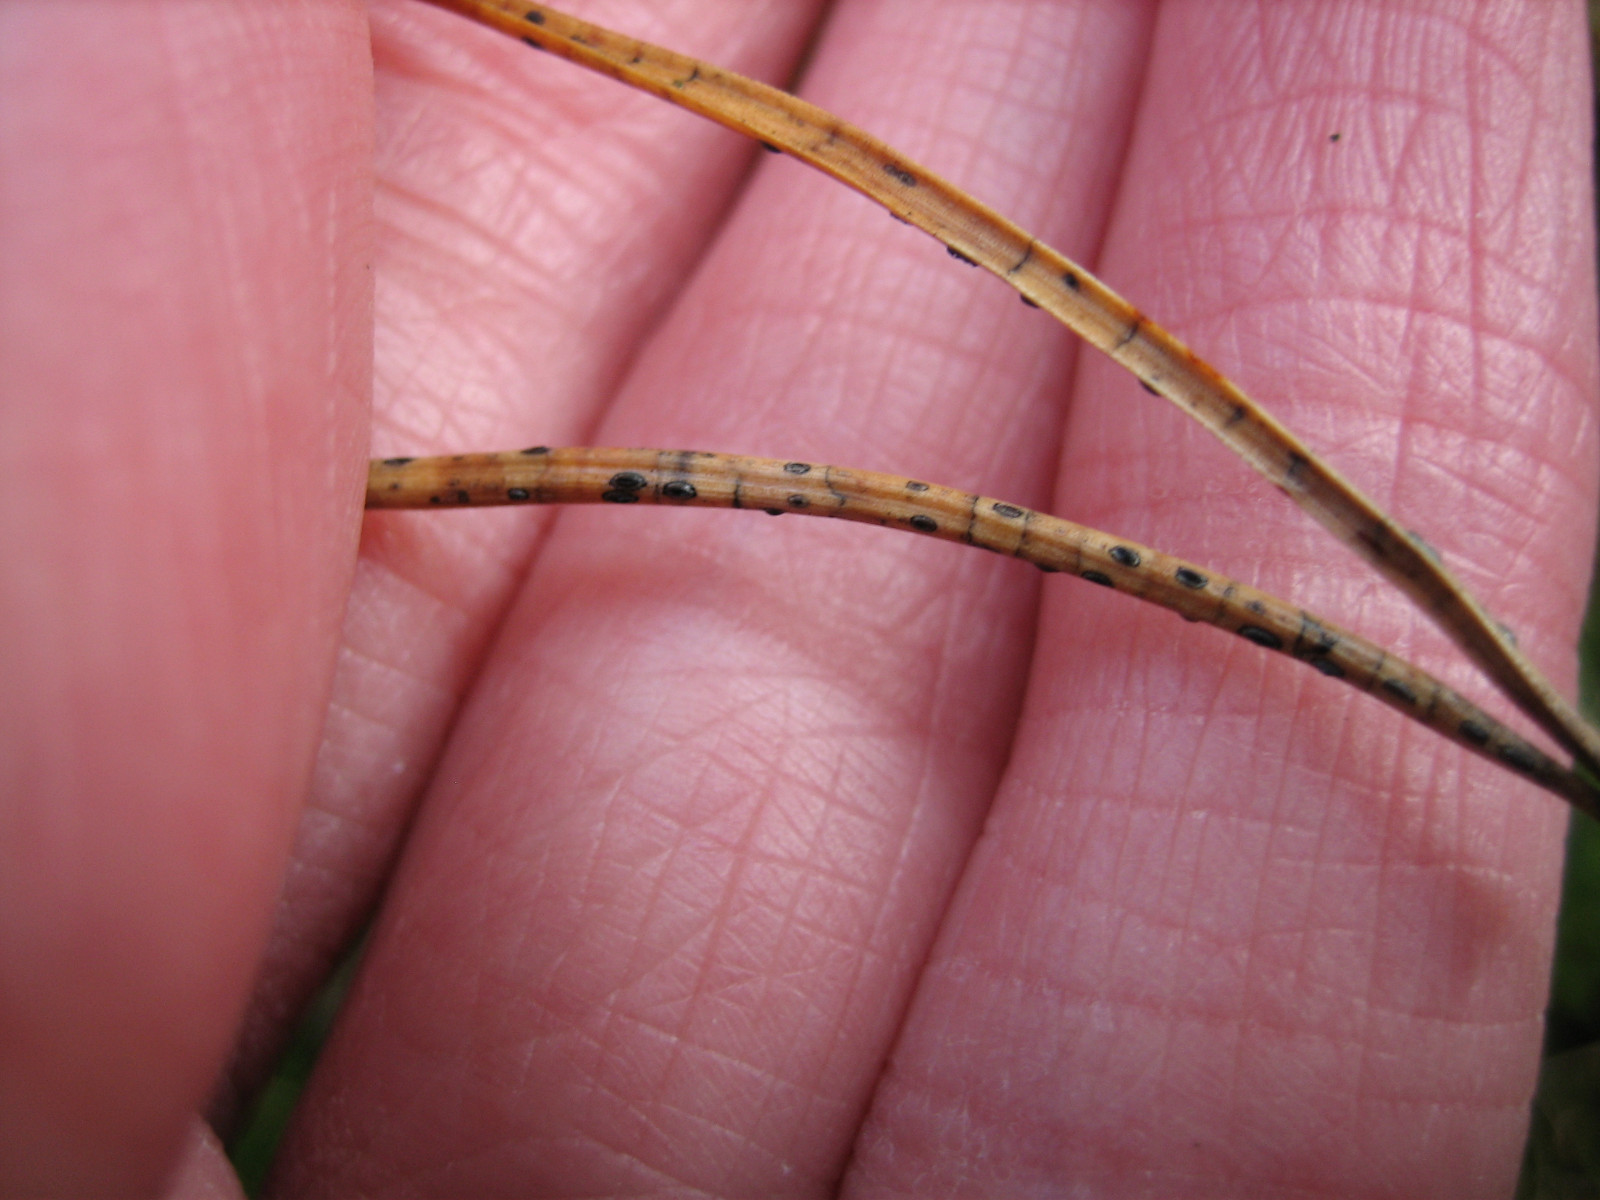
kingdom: Fungi
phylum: Ascomycota
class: Leotiomycetes
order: Rhytismatales
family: Rhytismataceae
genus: Lophodermium
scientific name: Lophodermium pinastri
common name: fyrre-fureplet
